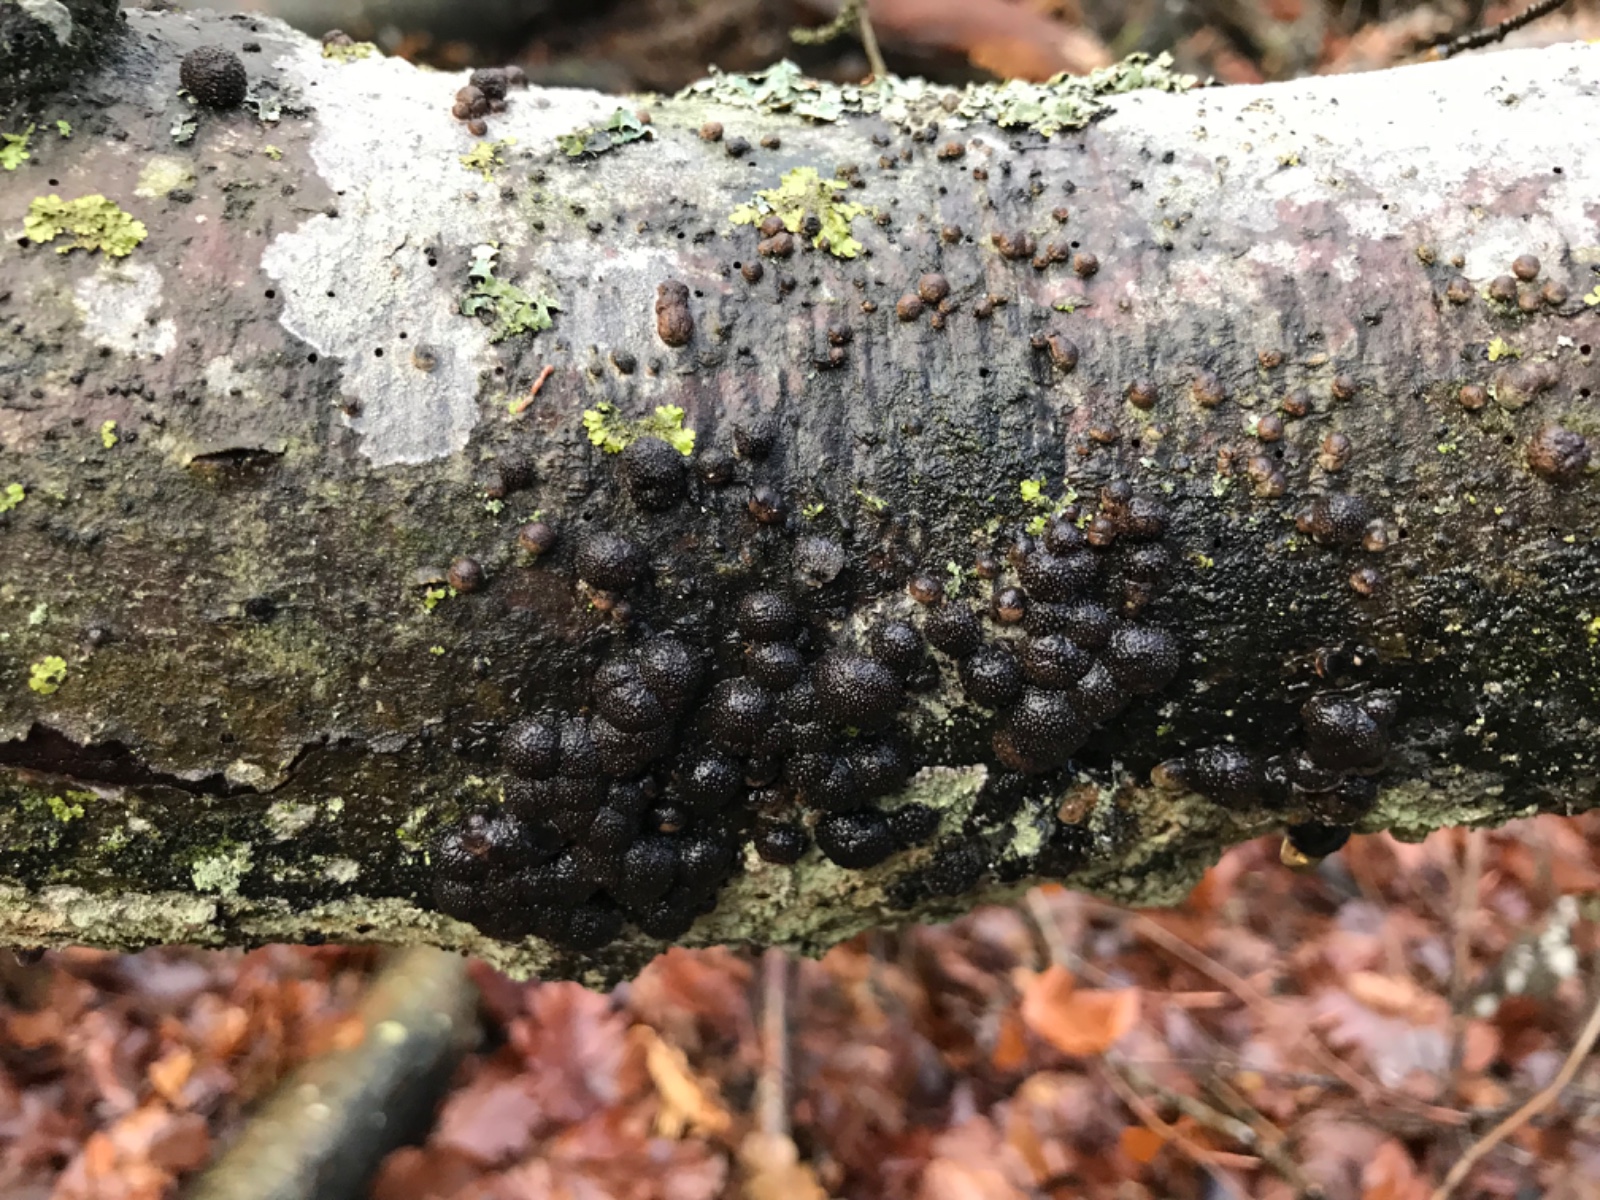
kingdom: Fungi
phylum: Ascomycota
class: Sordariomycetes
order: Xylariales
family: Hypoxylaceae
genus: Hypoxylon
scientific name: Hypoxylon fragiforme
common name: kuljordbær
